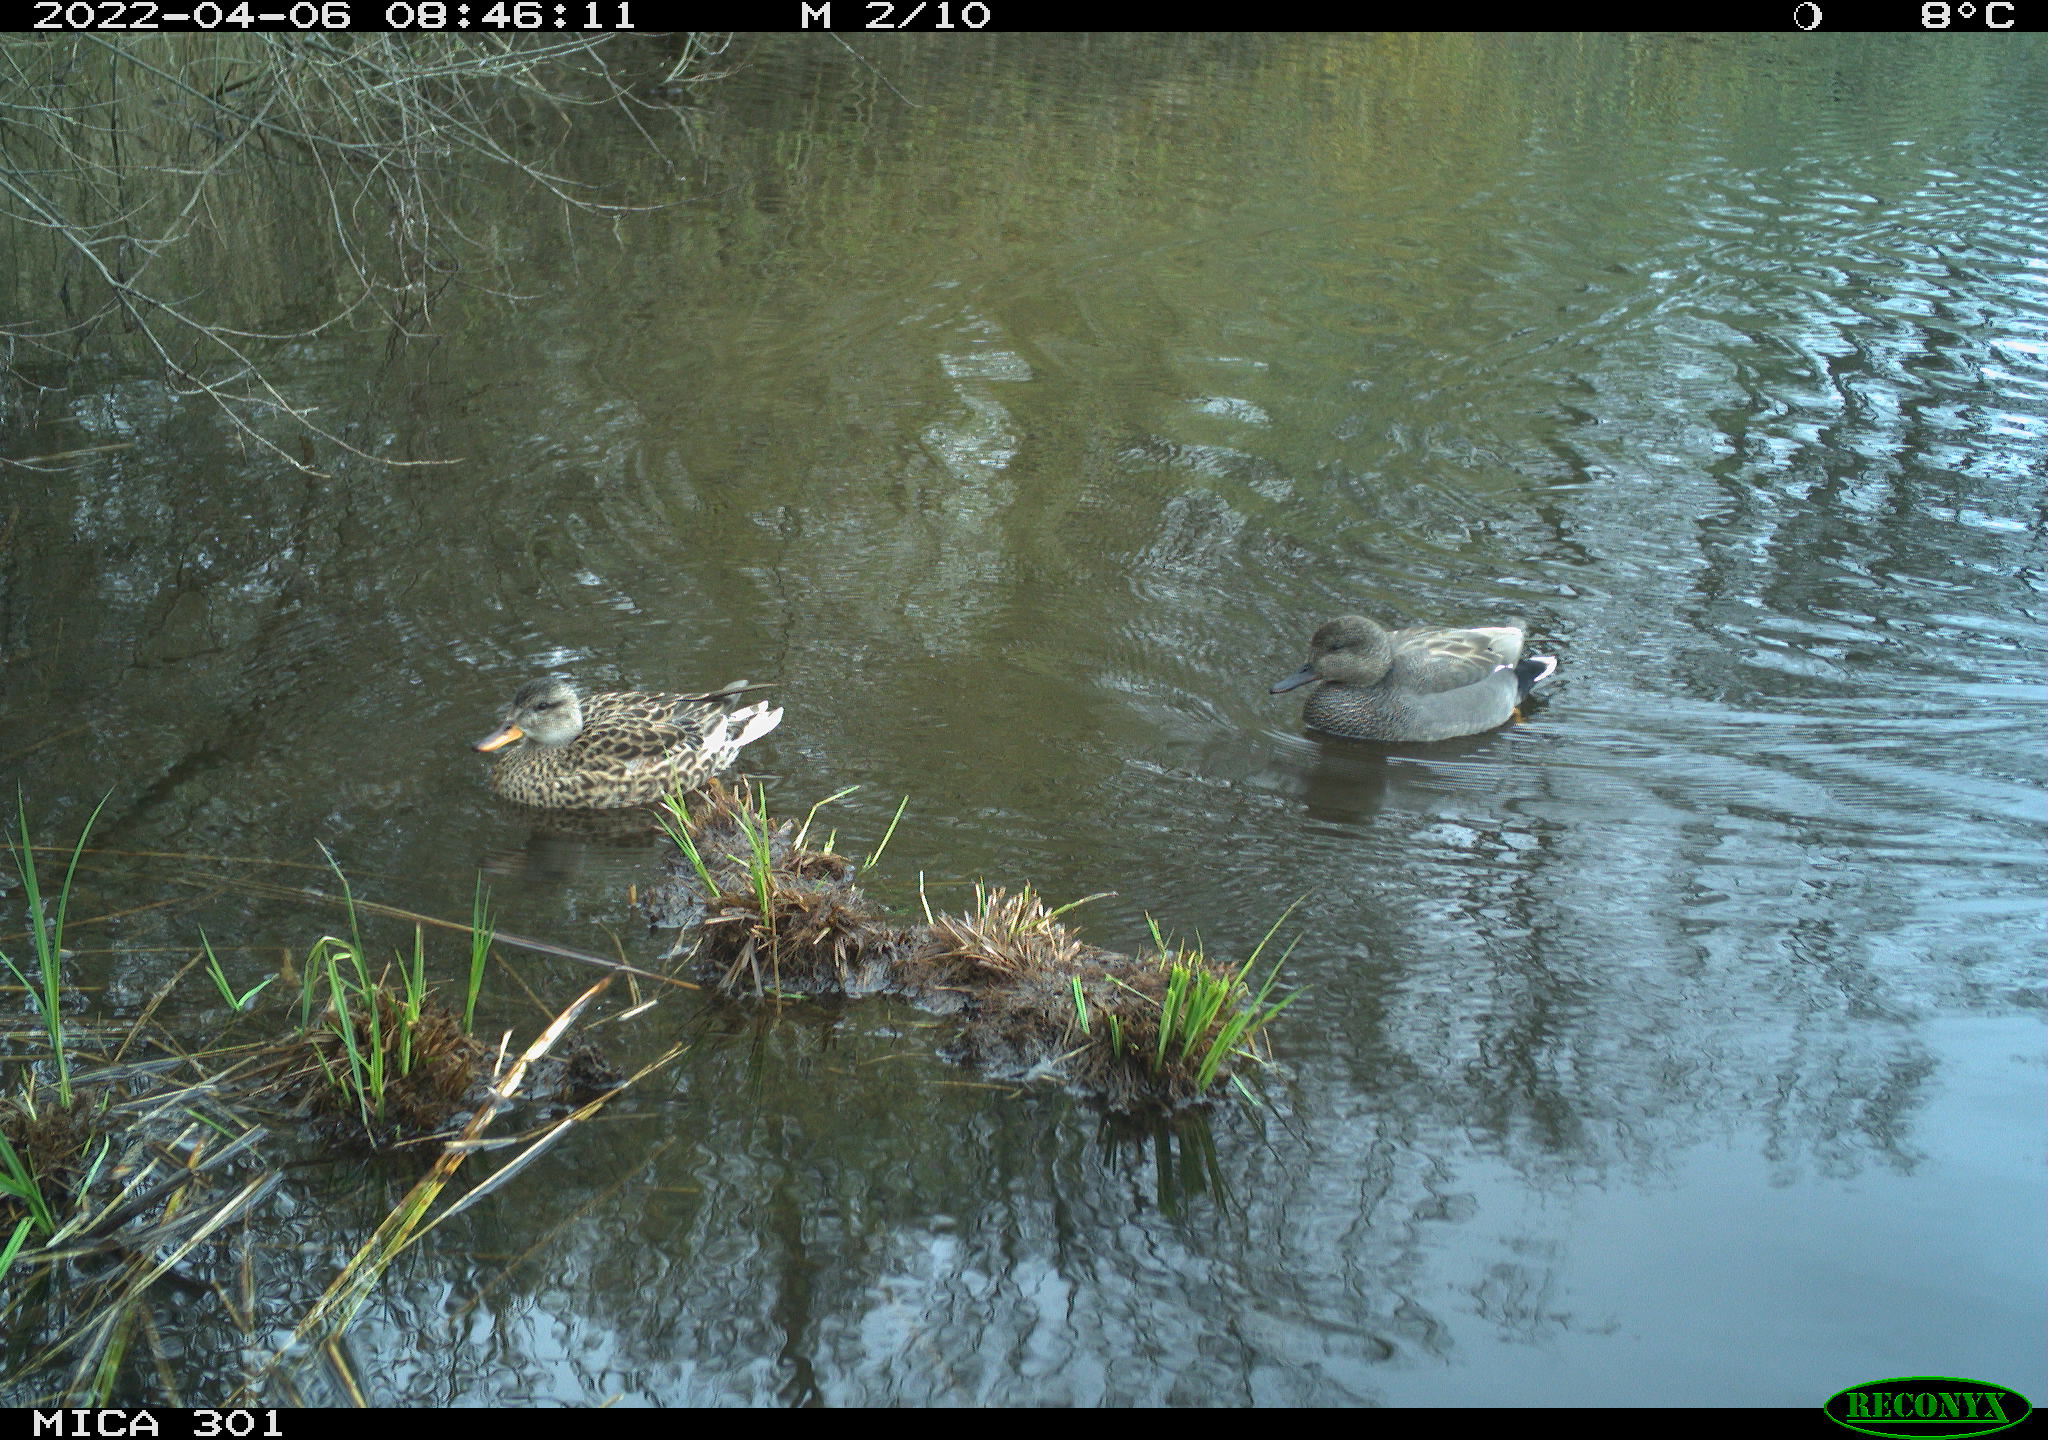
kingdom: Animalia
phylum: Chordata
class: Aves
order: Anseriformes
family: Anatidae
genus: Anas
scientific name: Anas platyrhynchos
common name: Mallard
